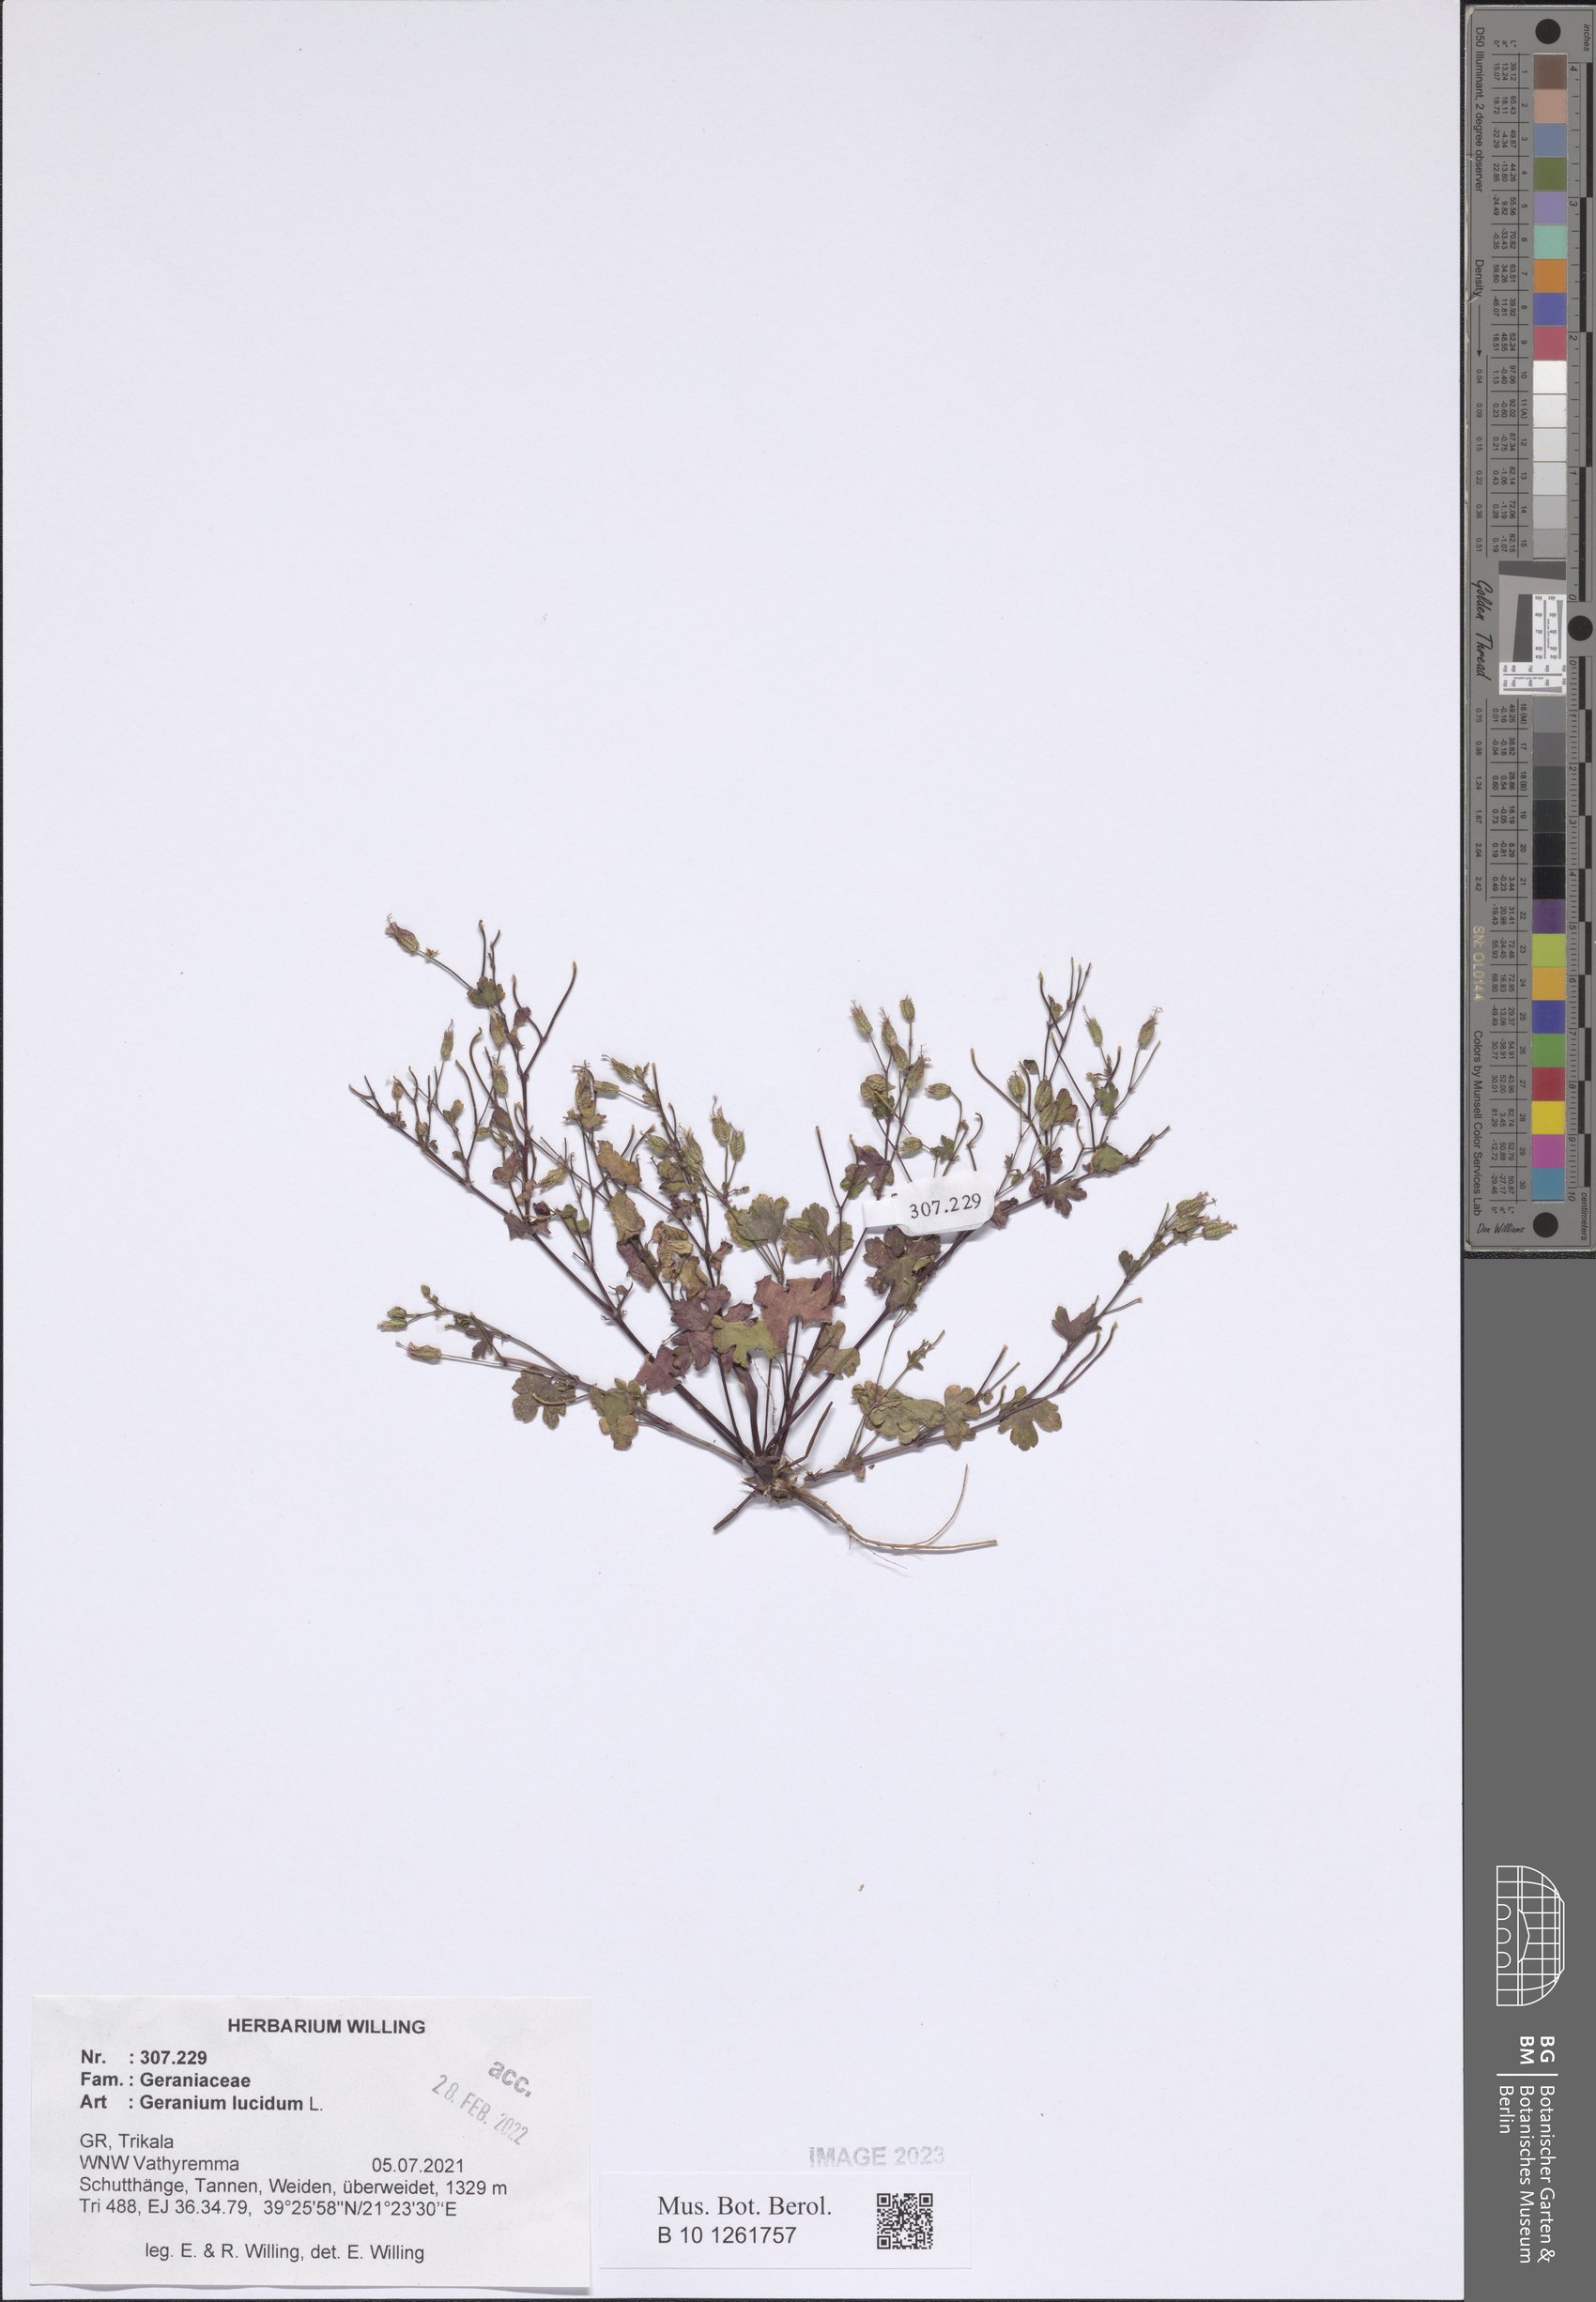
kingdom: Plantae
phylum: Tracheophyta
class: Magnoliopsida
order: Geraniales
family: Geraniaceae
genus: Geranium
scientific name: Geranium lucidum
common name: Shining crane's-bill
